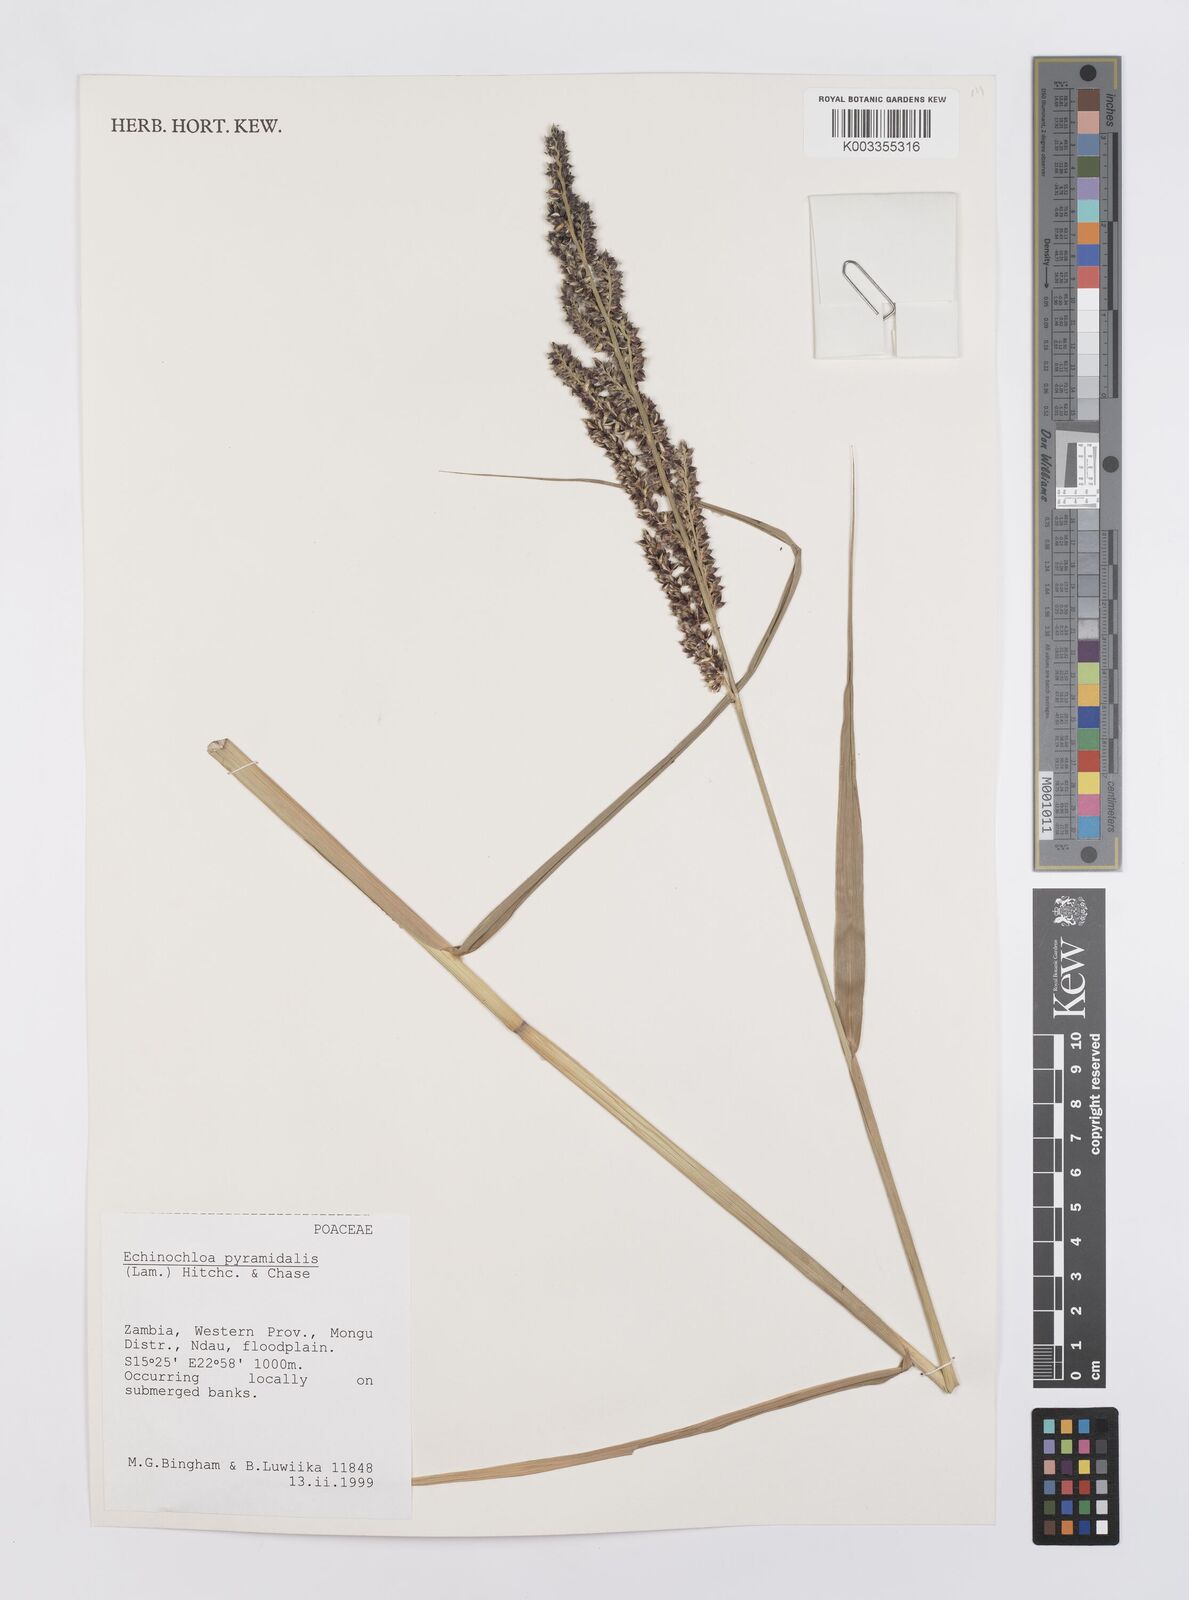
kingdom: Plantae
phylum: Tracheophyta
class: Liliopsida
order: Poales
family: Poaceae
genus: Echinochloa
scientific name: Echinochloa pyramidalis
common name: Antelope grass
